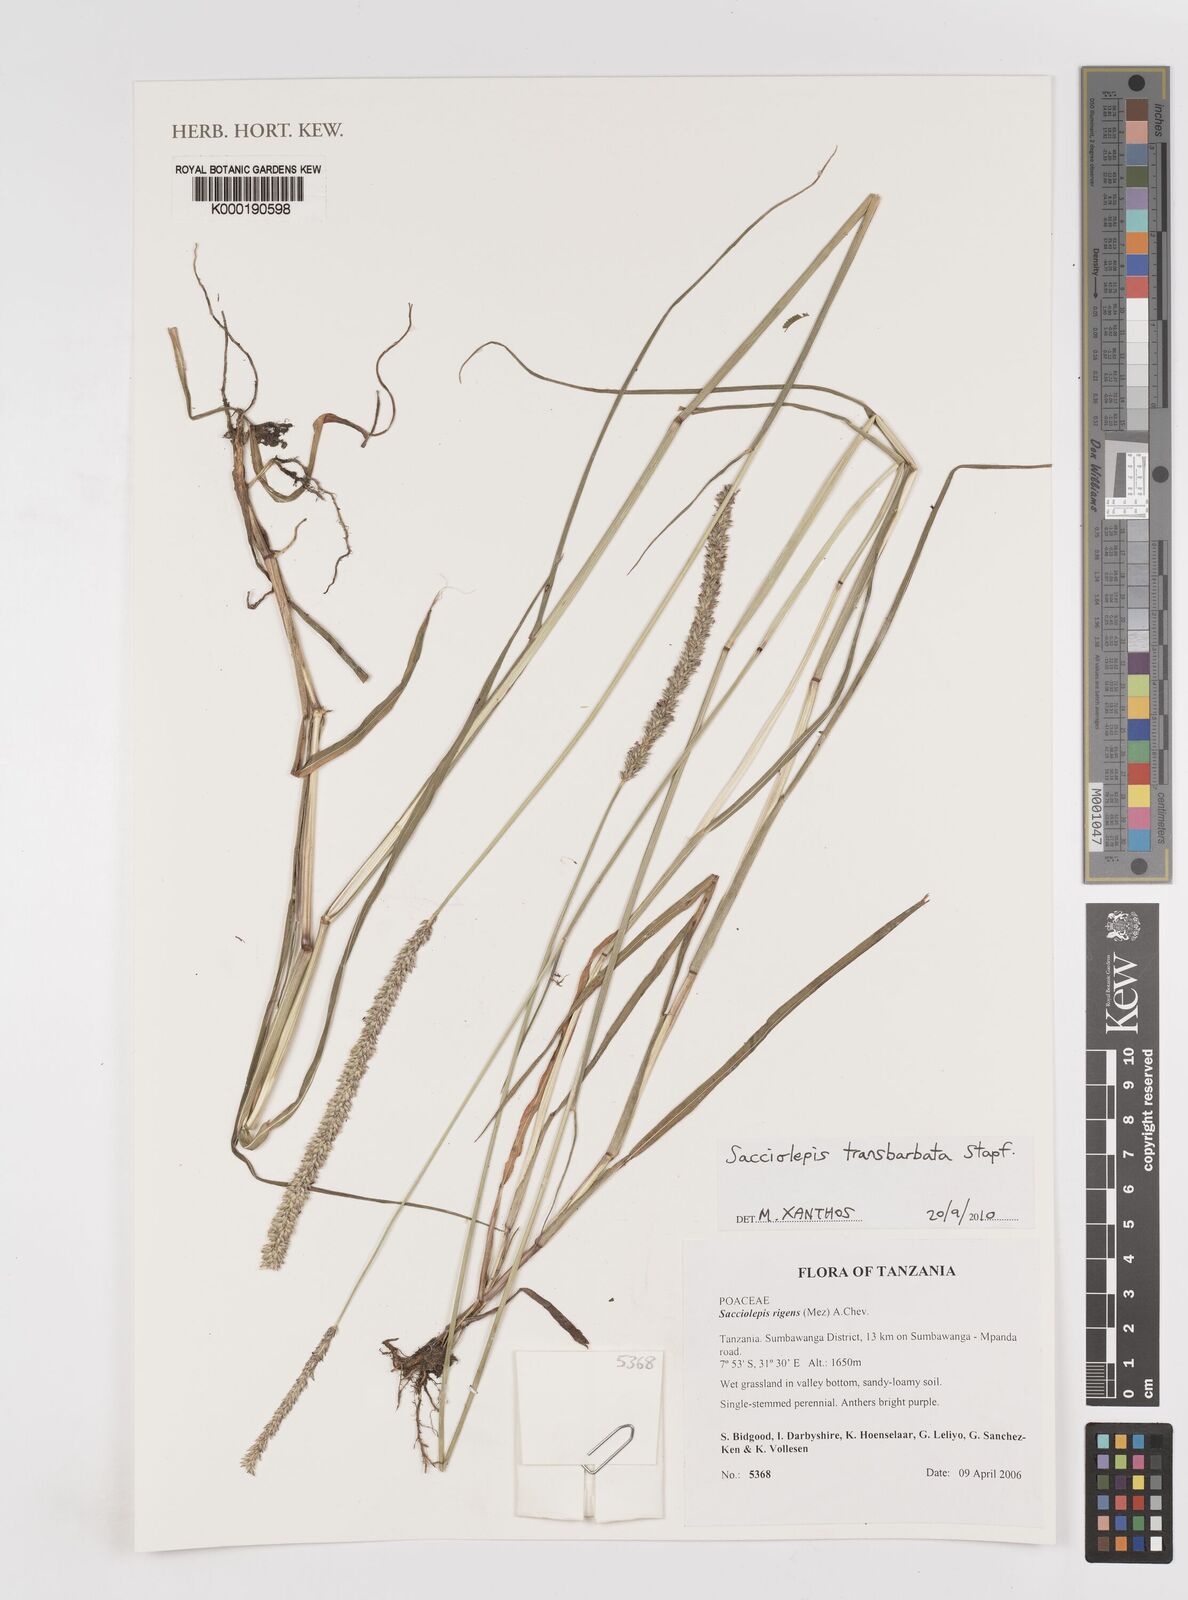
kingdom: Plantae
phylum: Tracheophyta
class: Liliopsida
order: Poales
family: Poaceae
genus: Sacciolepis
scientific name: Sacciolepis leptorrhachis
